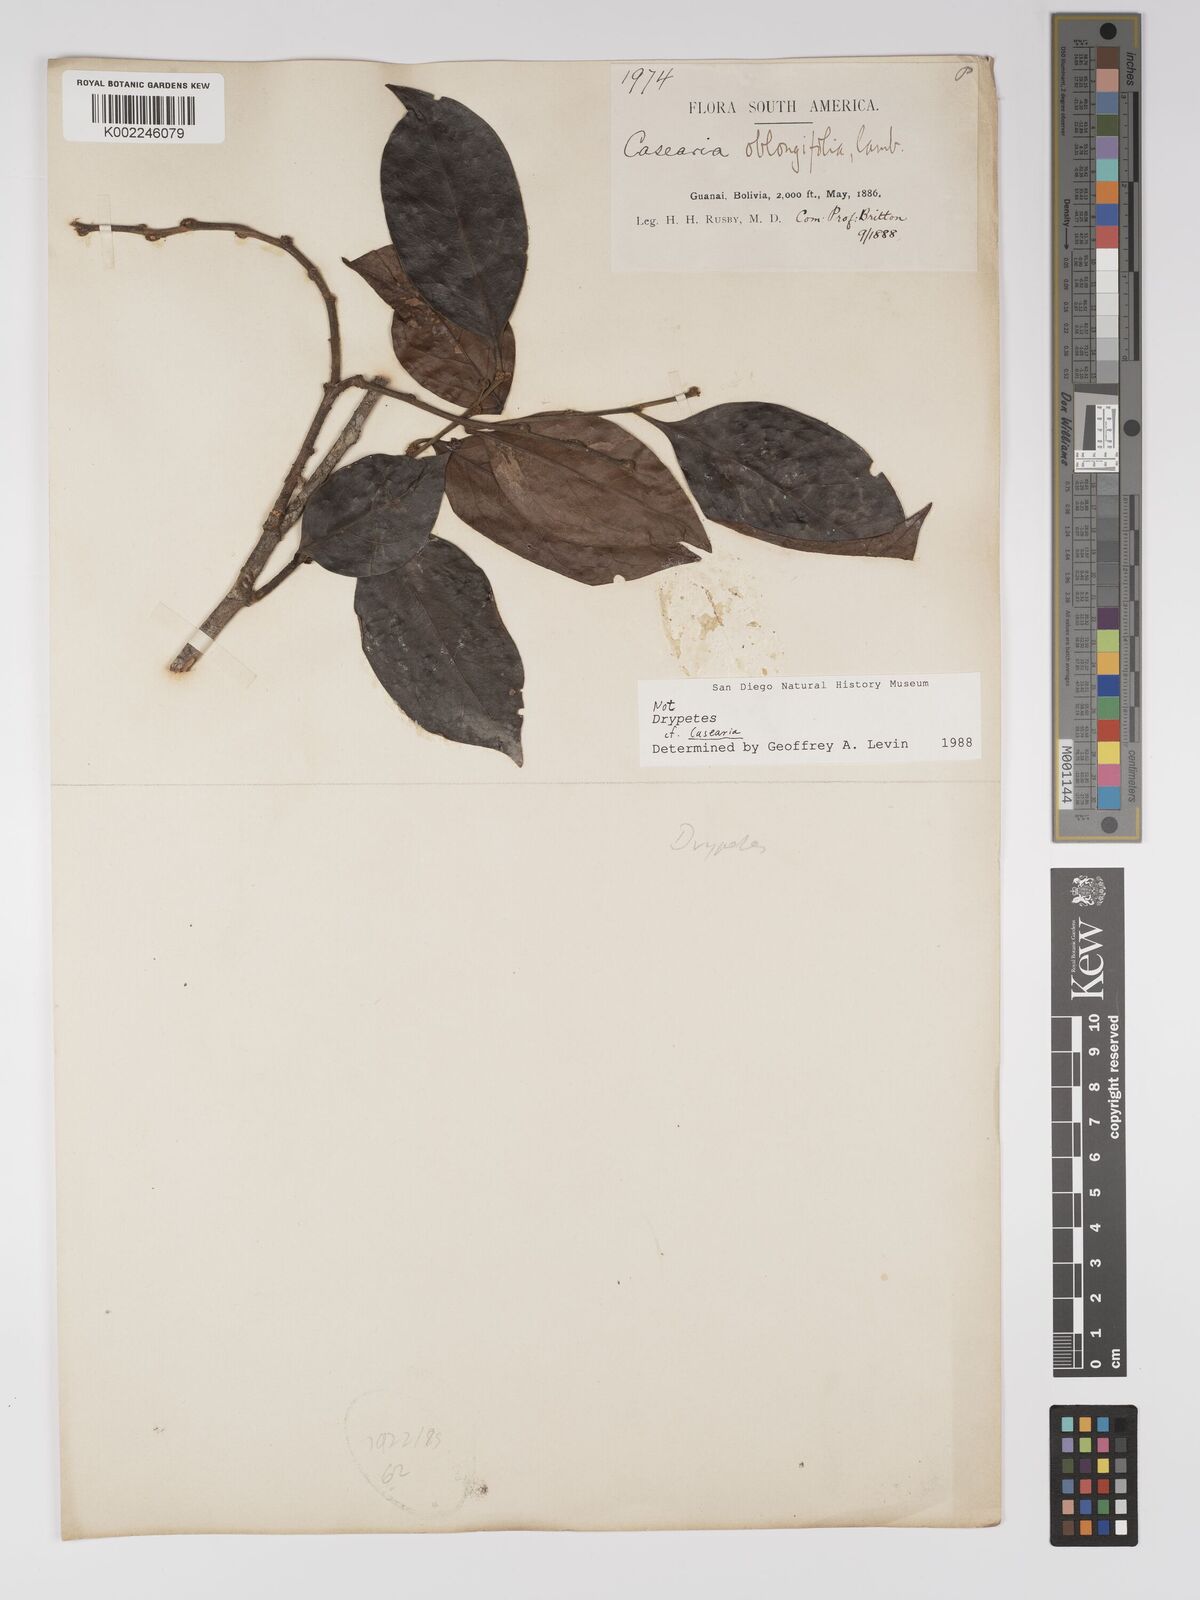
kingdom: Plantae
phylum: Tracheophyta
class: Magnoliopsida
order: Malpighiales
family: Euphorbiaceae
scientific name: Euphorbiaceae
